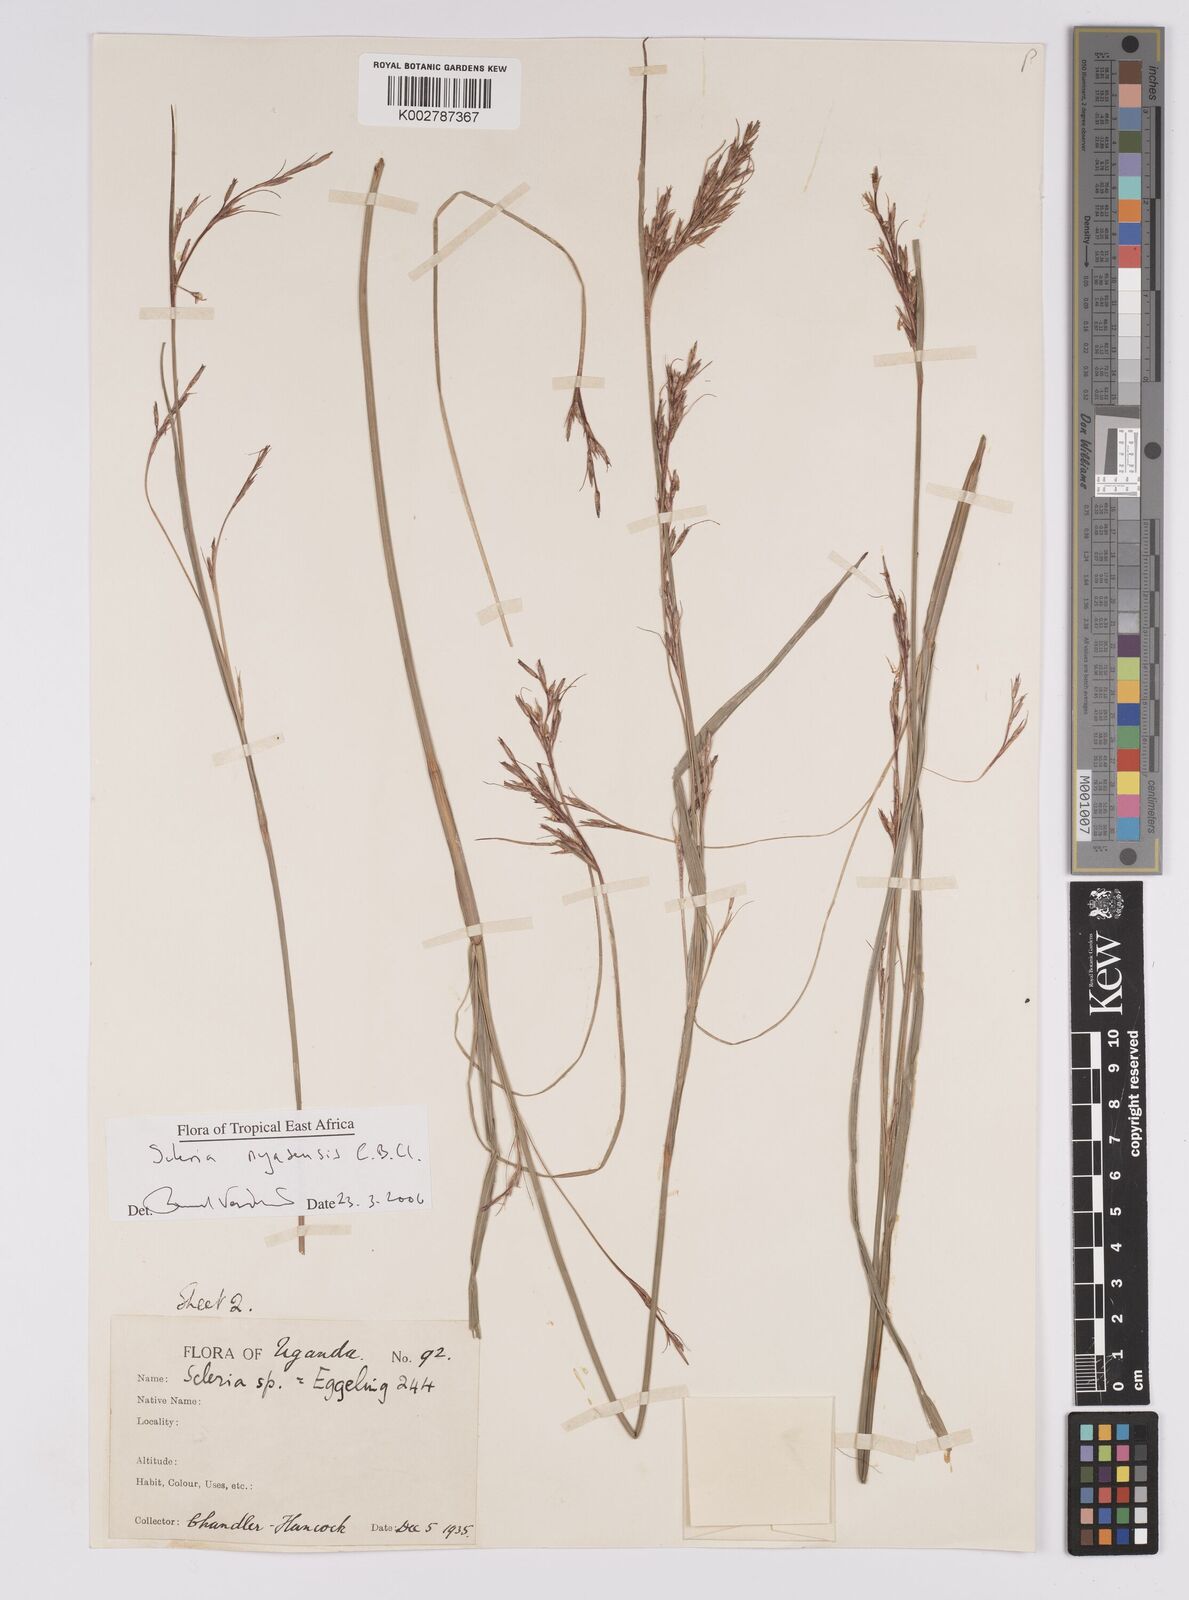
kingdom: Plantae
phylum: Tracheophyta
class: Liliopsida
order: Poales
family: Cyperaceae
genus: Scleria
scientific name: Scleria nyasensis
